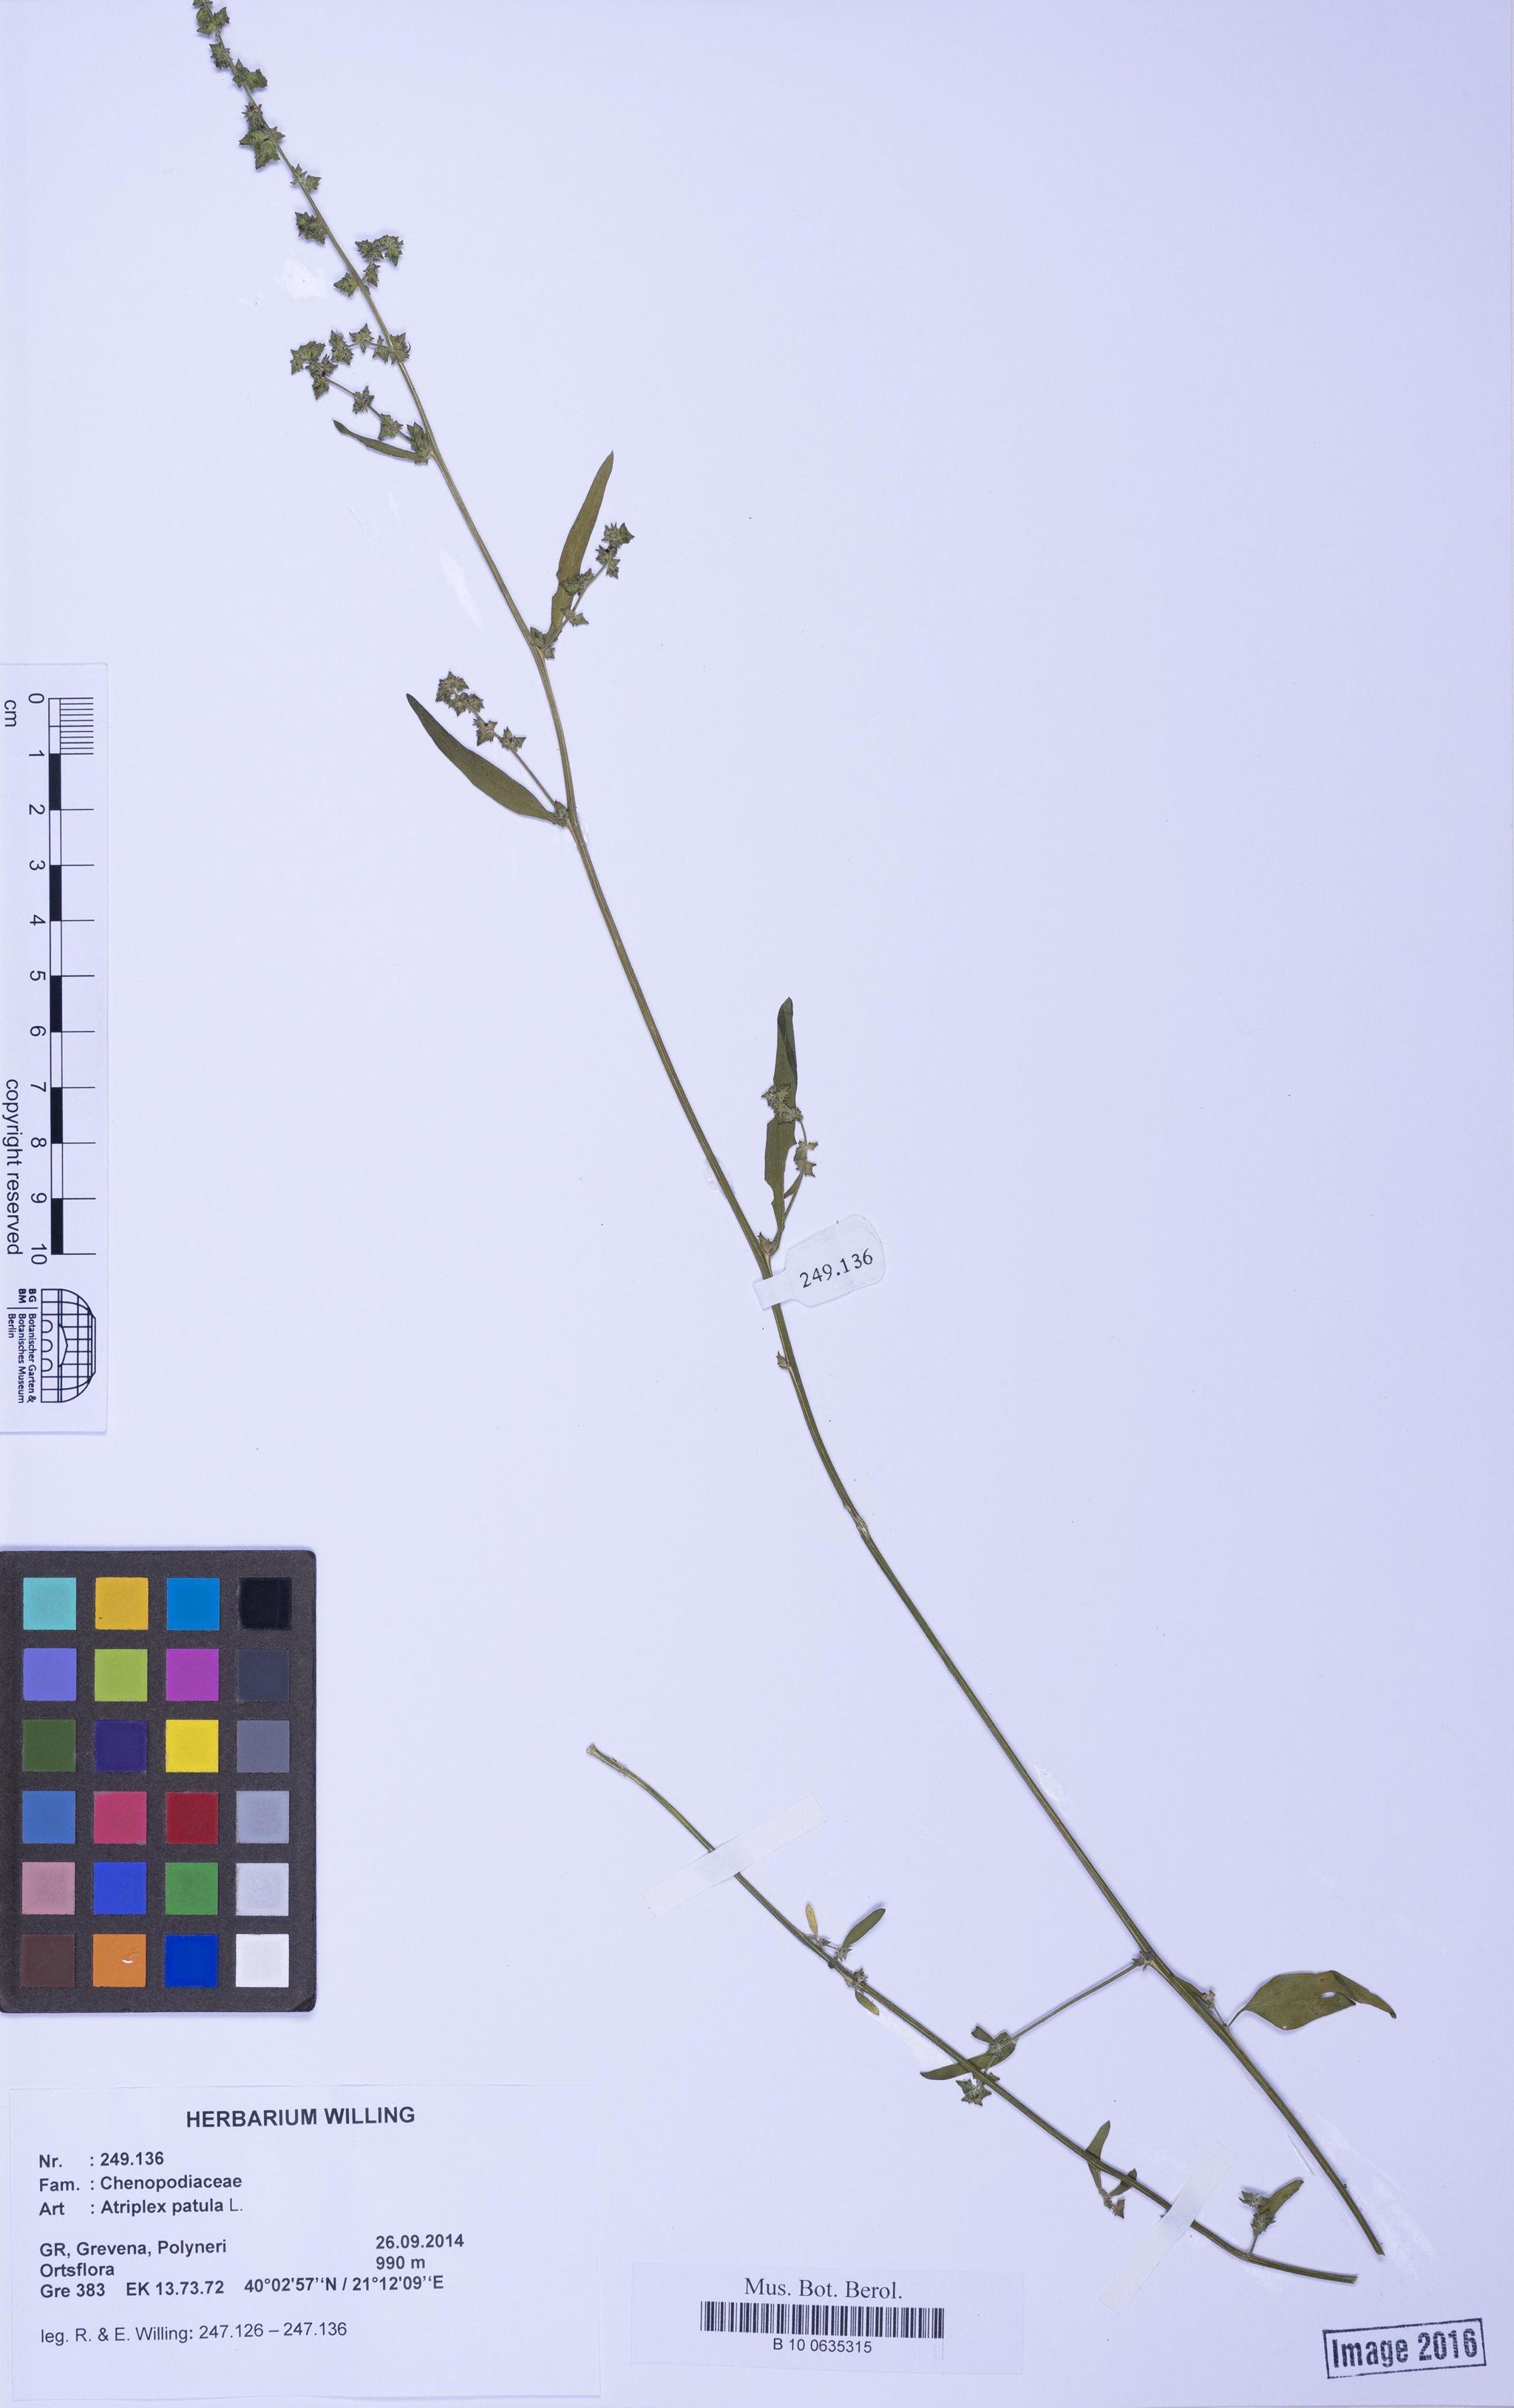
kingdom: Plantae
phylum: Tracheophyta
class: Magnoliopsida
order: Caryophyllales
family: Amaranthaceae
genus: Atriplex
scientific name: Atriplex patula
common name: Common orache
